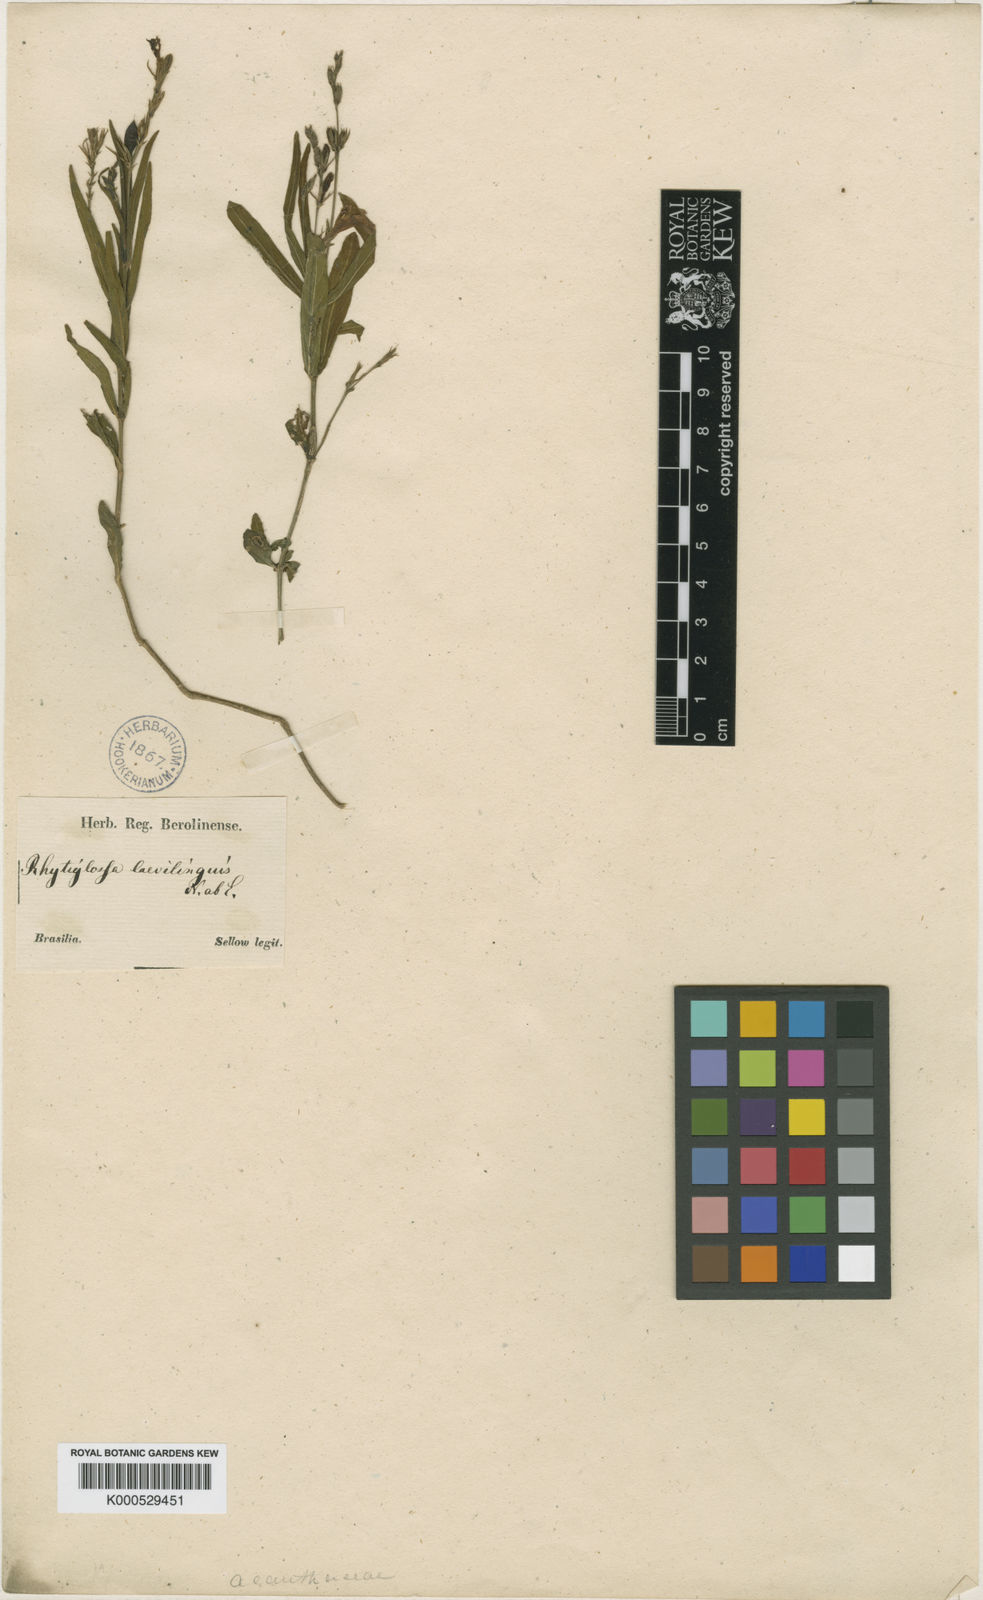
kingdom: Plantae
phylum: Tracheophyta
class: Magnoliopsida
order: Lamiales
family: Acanthaceae
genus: Dianthera
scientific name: Dianthera laevilinguis
